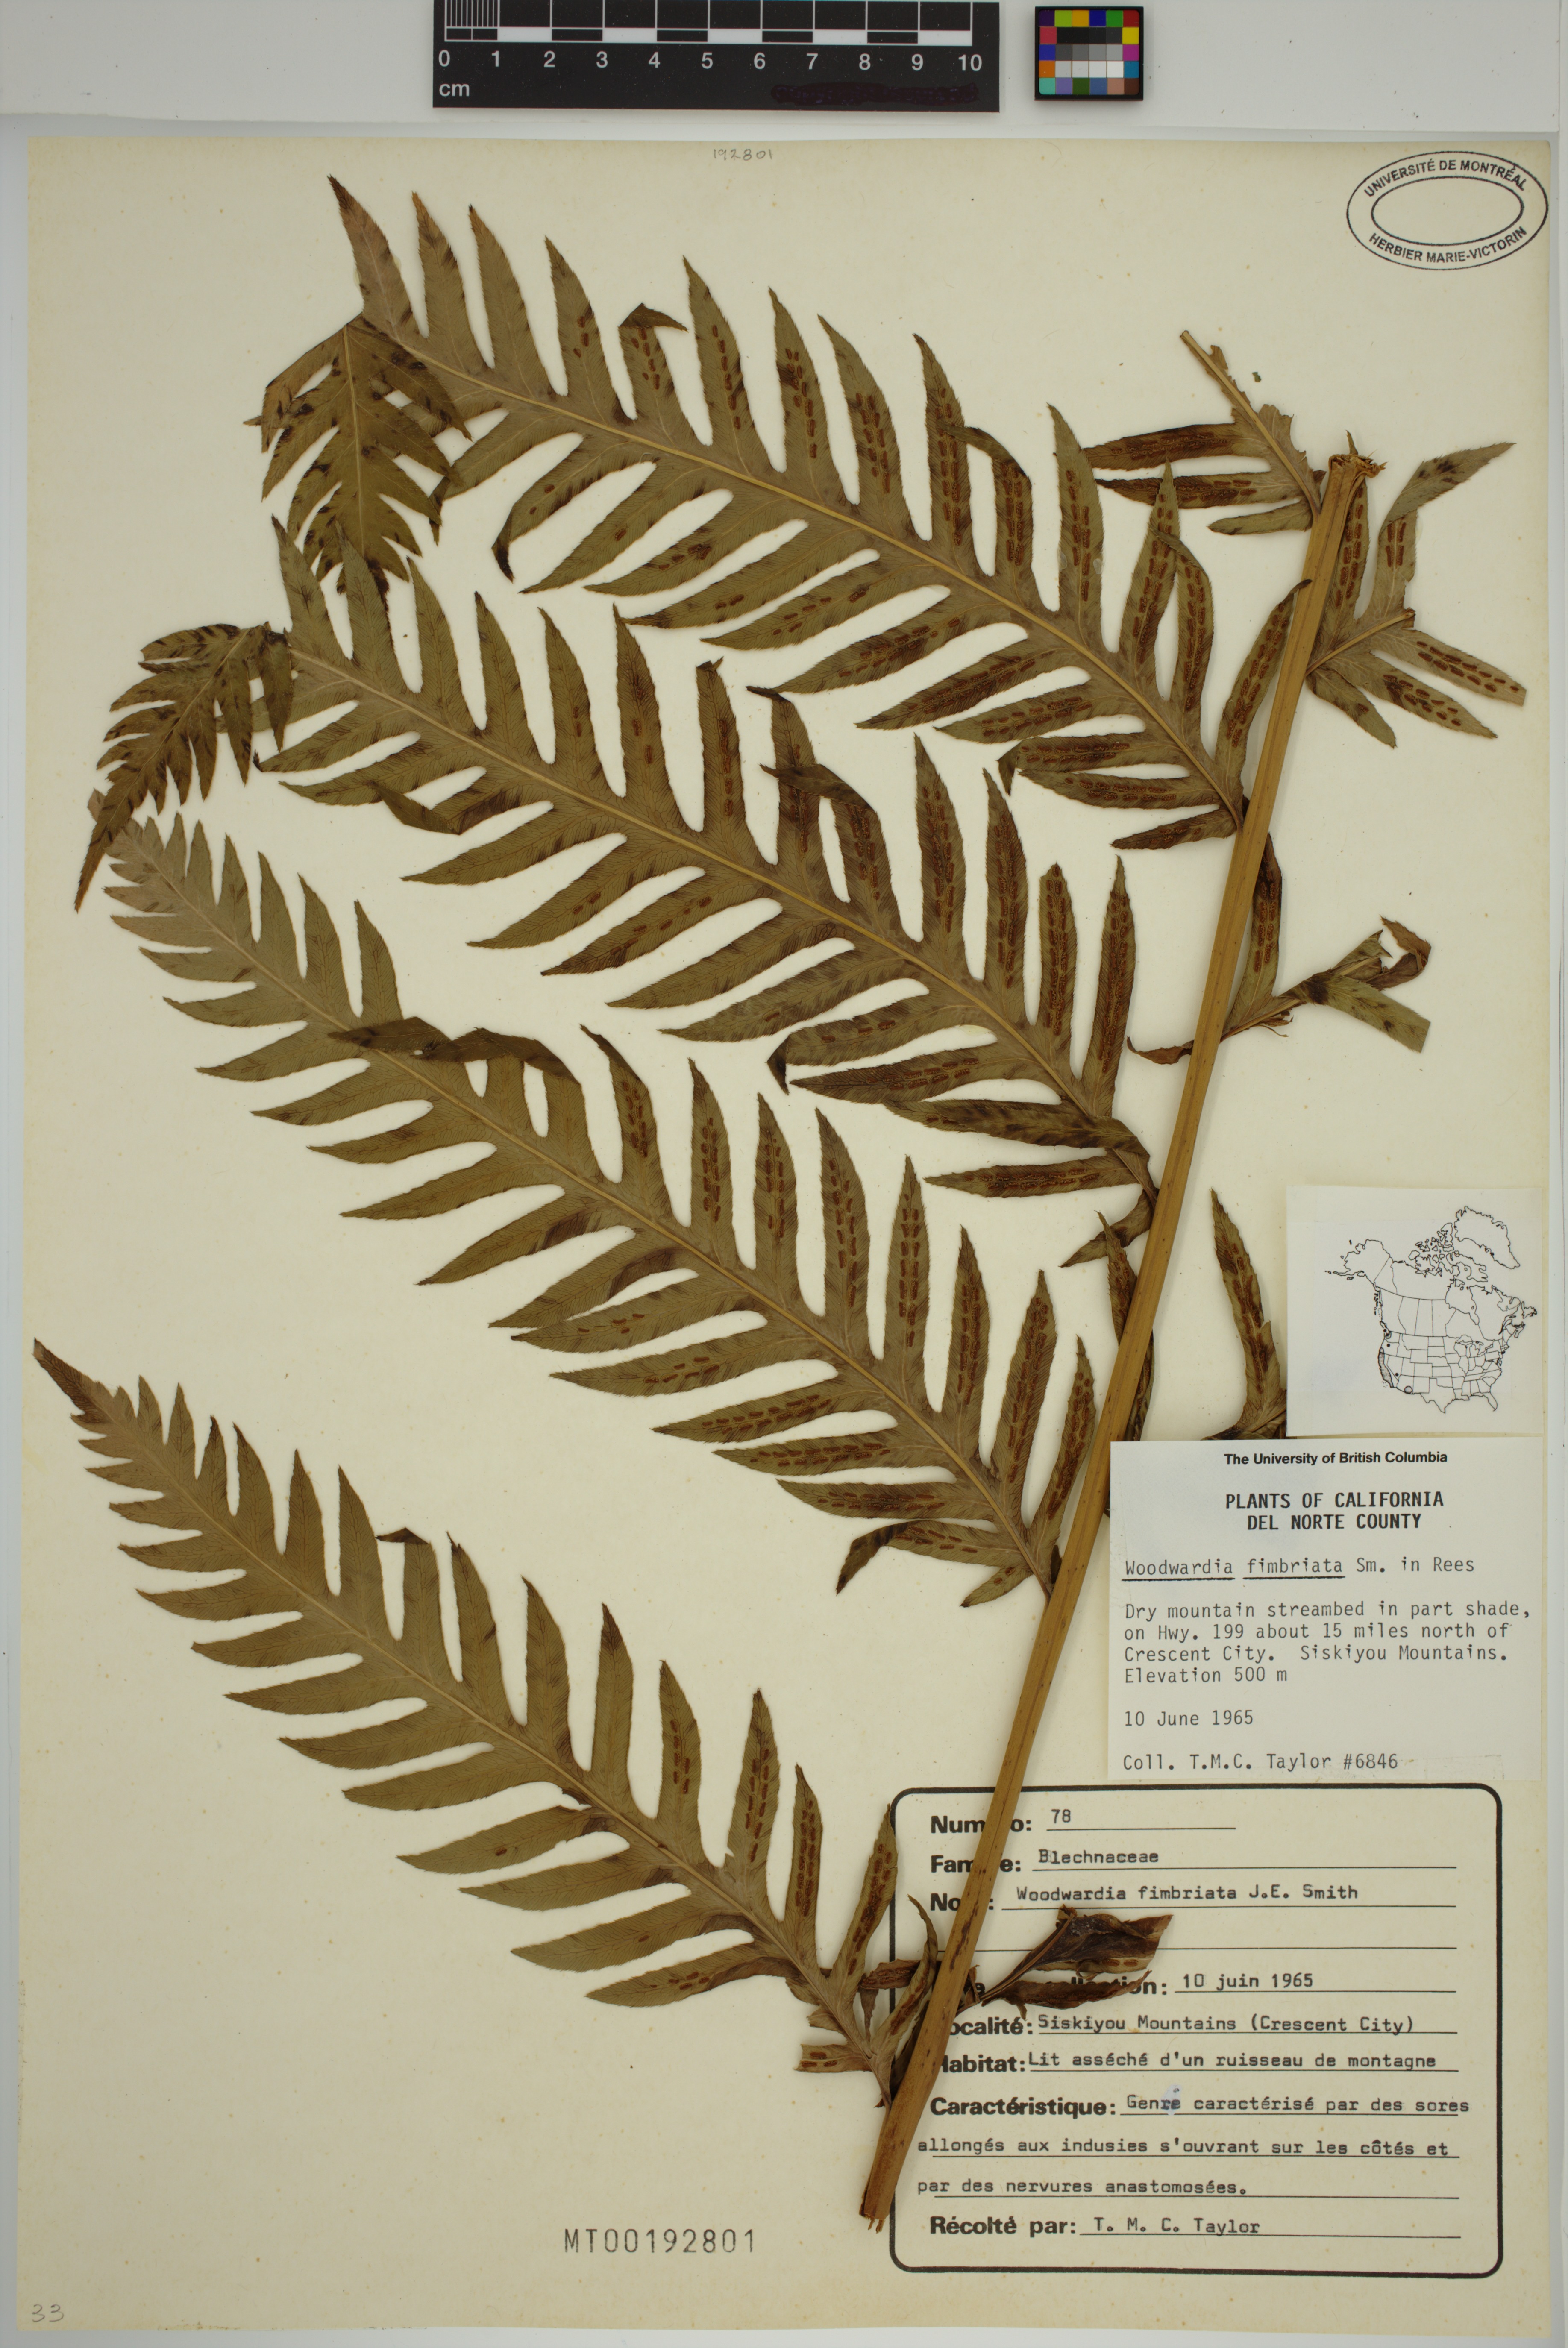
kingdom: Plantae
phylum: Tracheophyta
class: Polypodiopsida
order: Polypodiales
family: Blechnaceae
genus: Woodwardia
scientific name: Woodwardia fimbriata
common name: Giant chain fern
